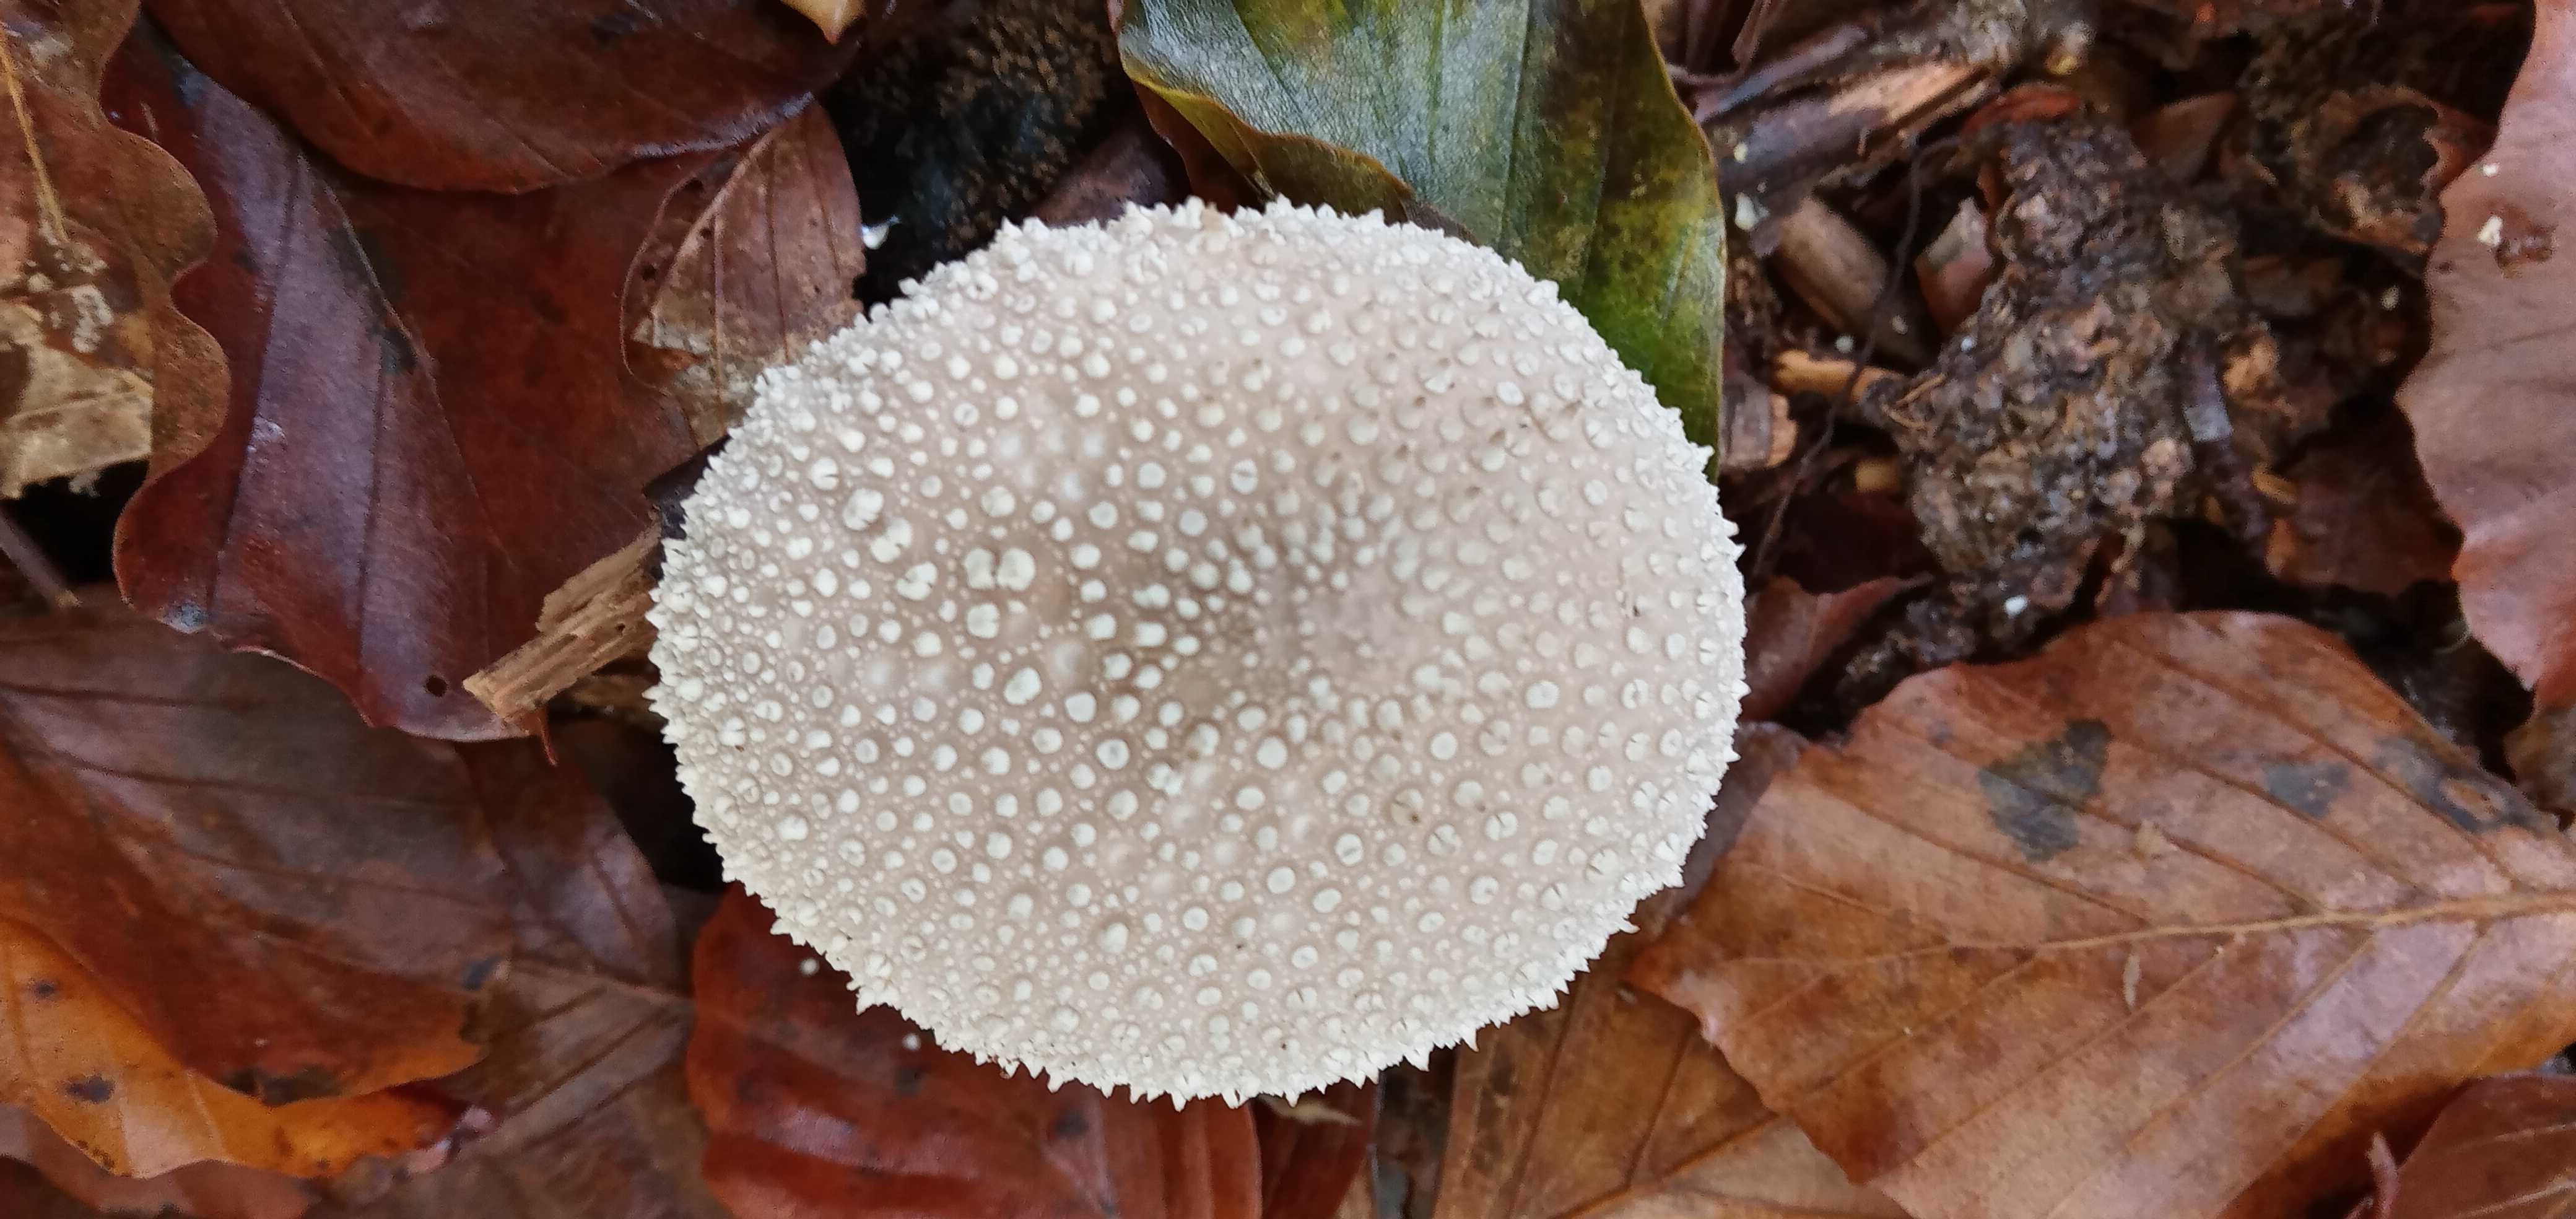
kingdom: Fungi
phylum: Basidiomycota
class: Agaricomycetes
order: Agaricales
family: Lycoperdaceae
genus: Lycoperdon
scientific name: Lycoperdon perlatum
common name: krystal-støvbold
